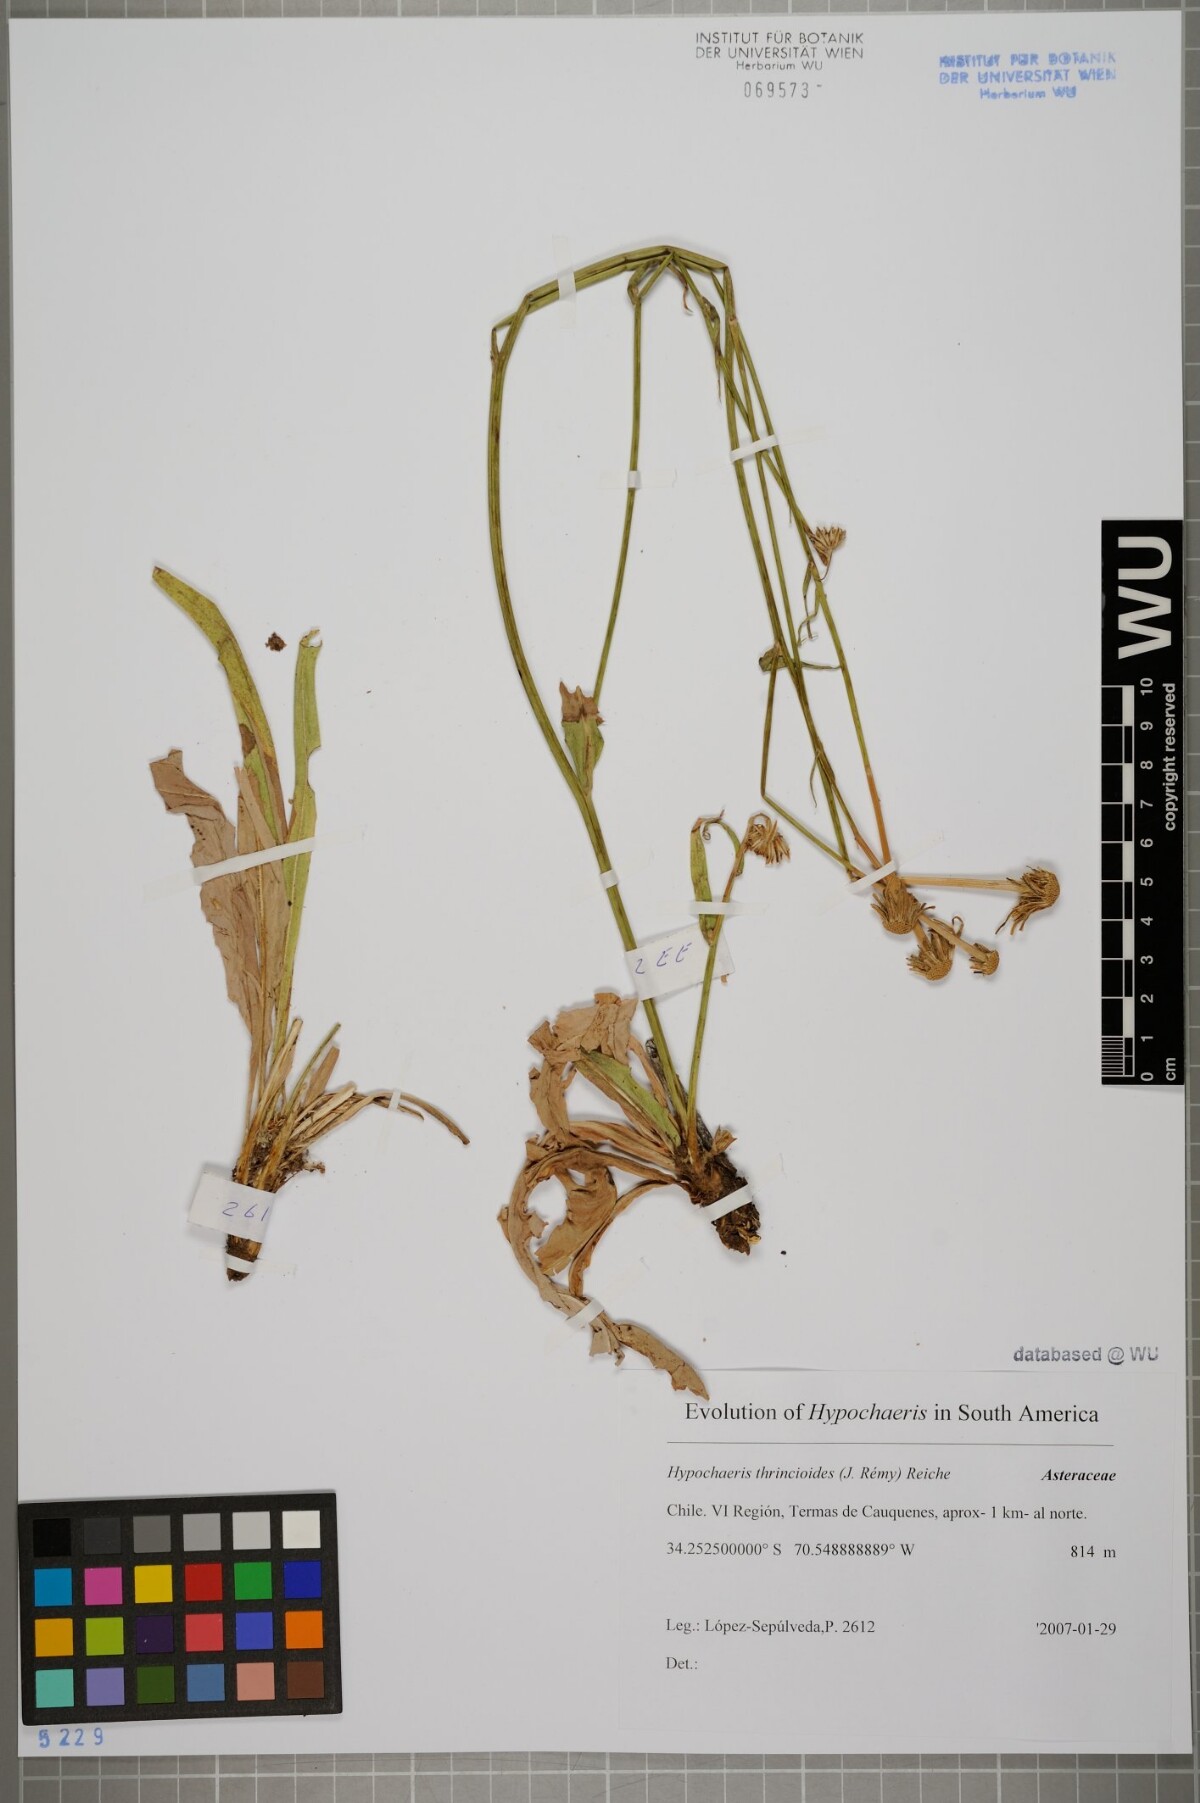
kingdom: Plantae
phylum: Tracheophyta
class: Magnoliopsida
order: Asterales
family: Asteraceae
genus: Hypochaeris
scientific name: Hypochaeris apargioides
